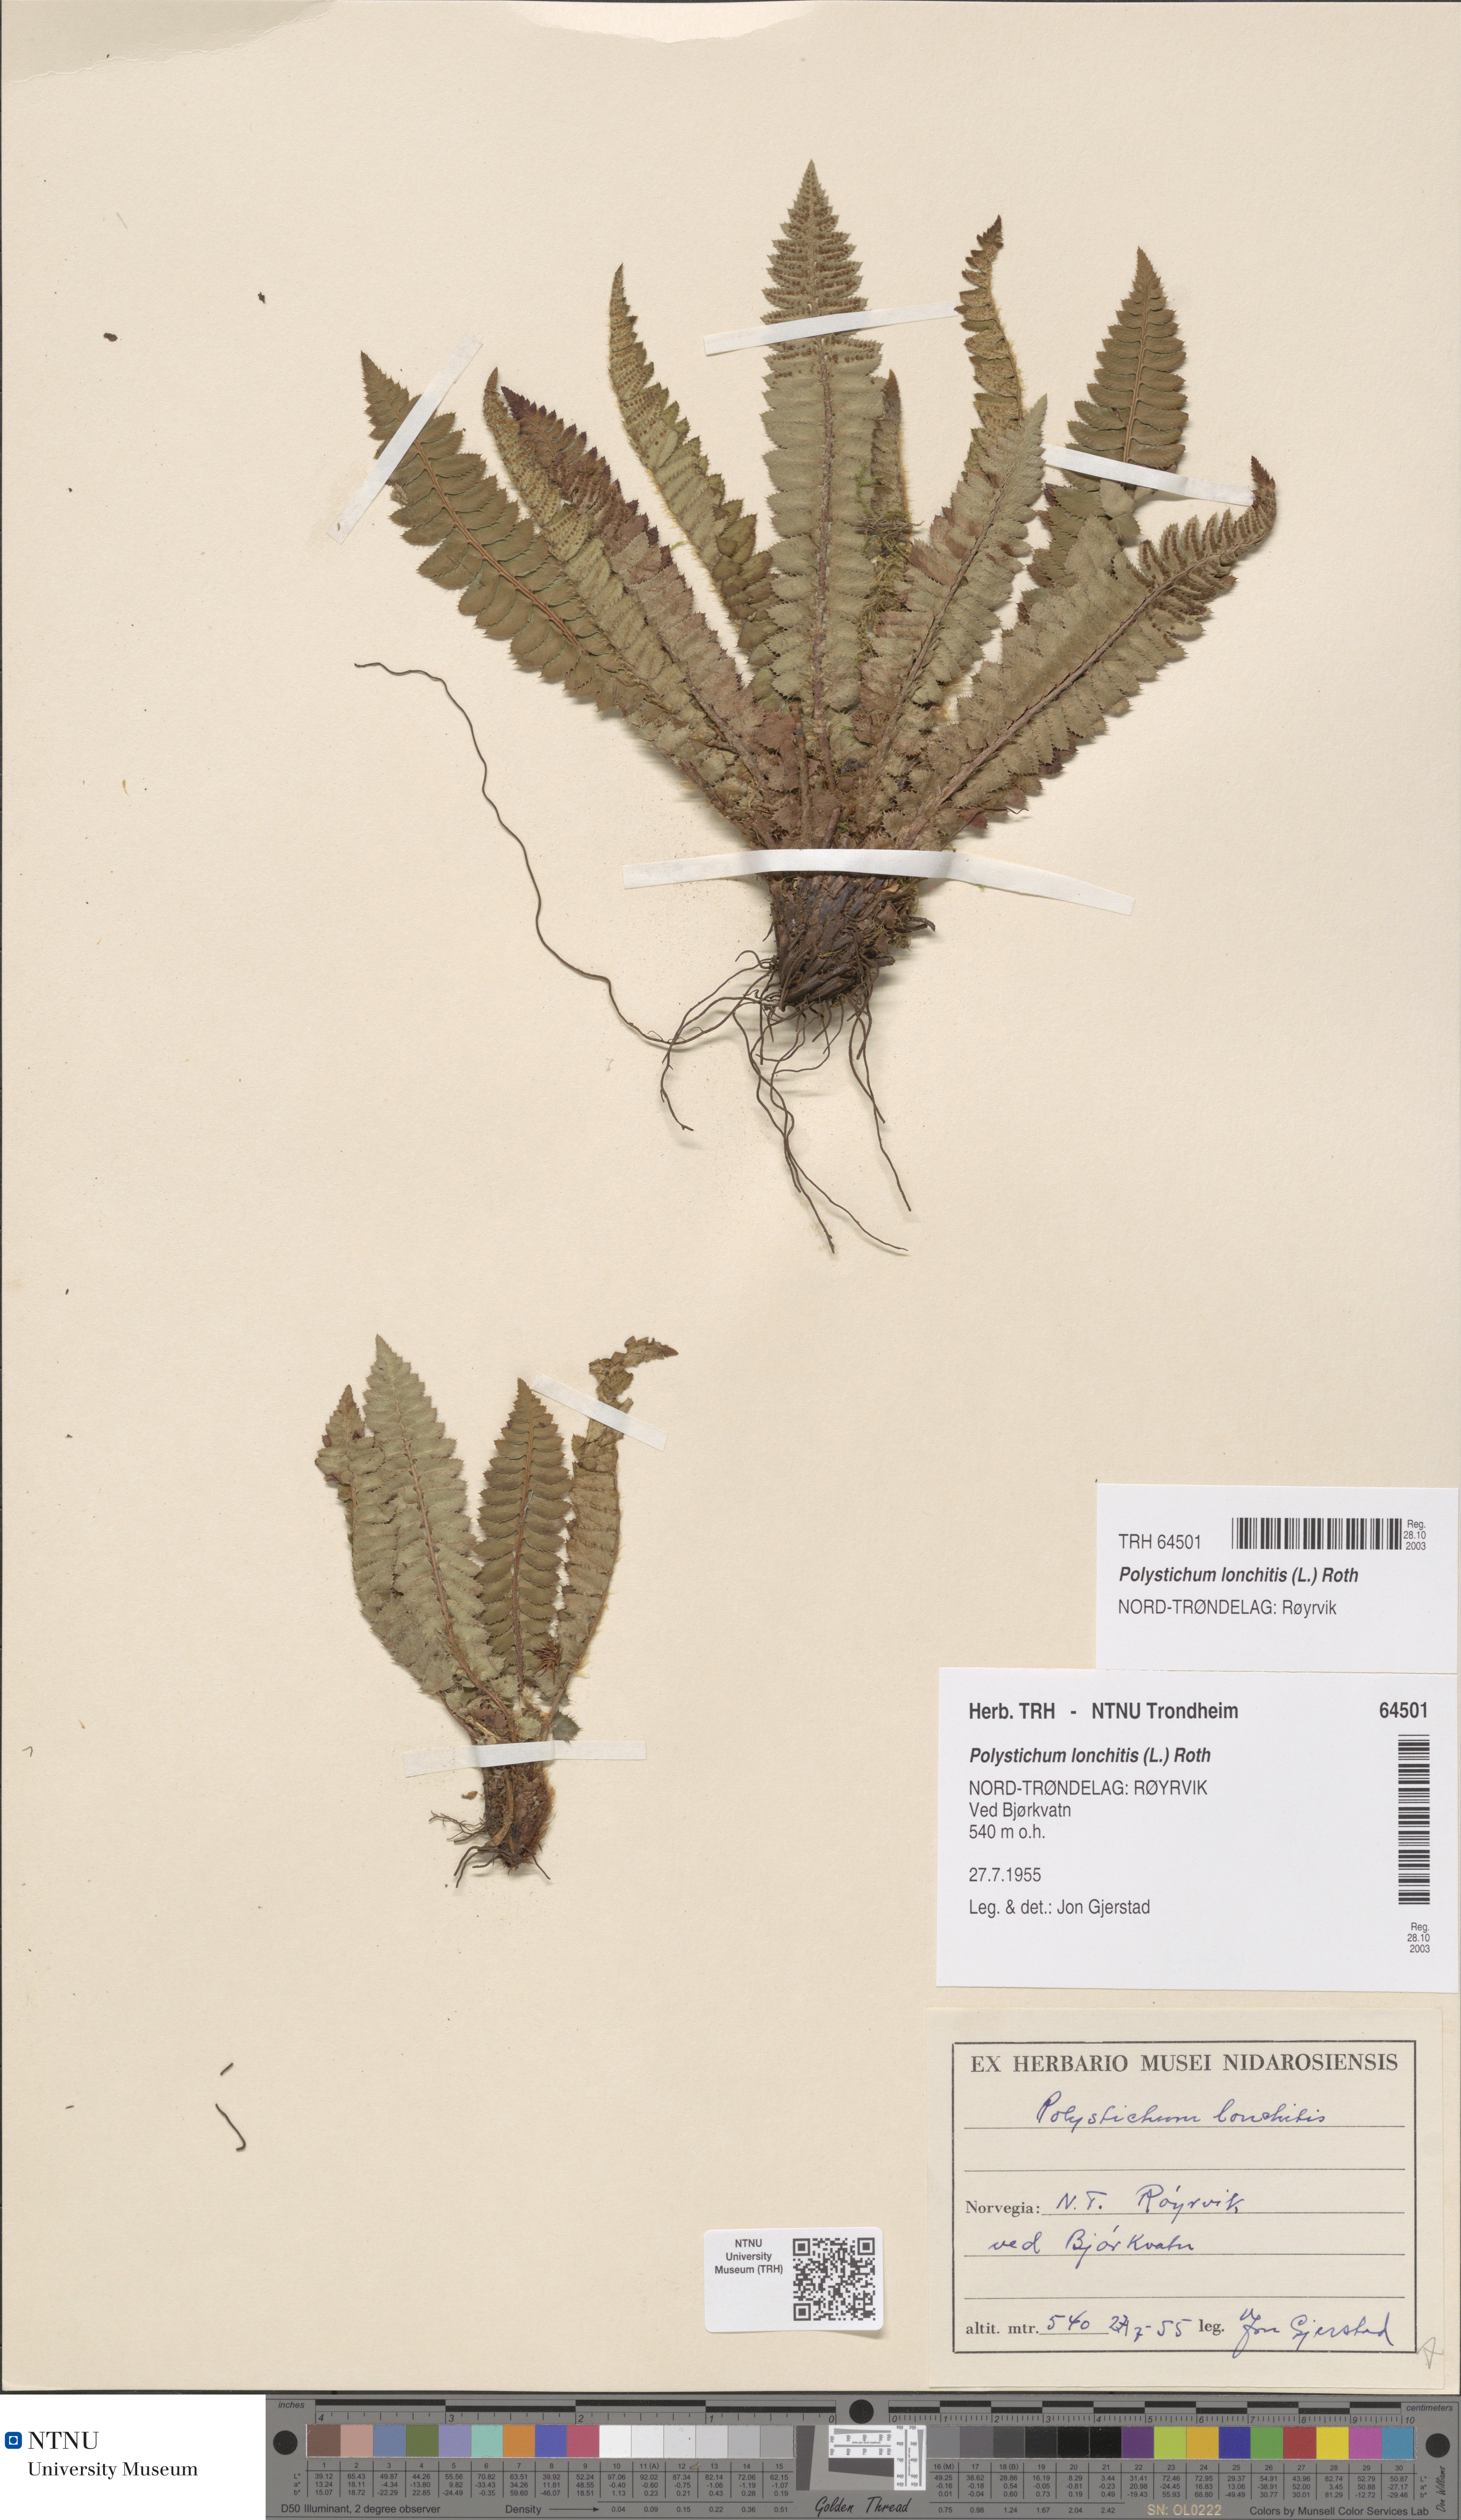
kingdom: Plantae
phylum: Tracheophyta
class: Polypodiopsida
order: Polypodiales
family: Dryopteridaceae
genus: Polystichum
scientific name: Polystichum lonchitis
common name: Holly fern
